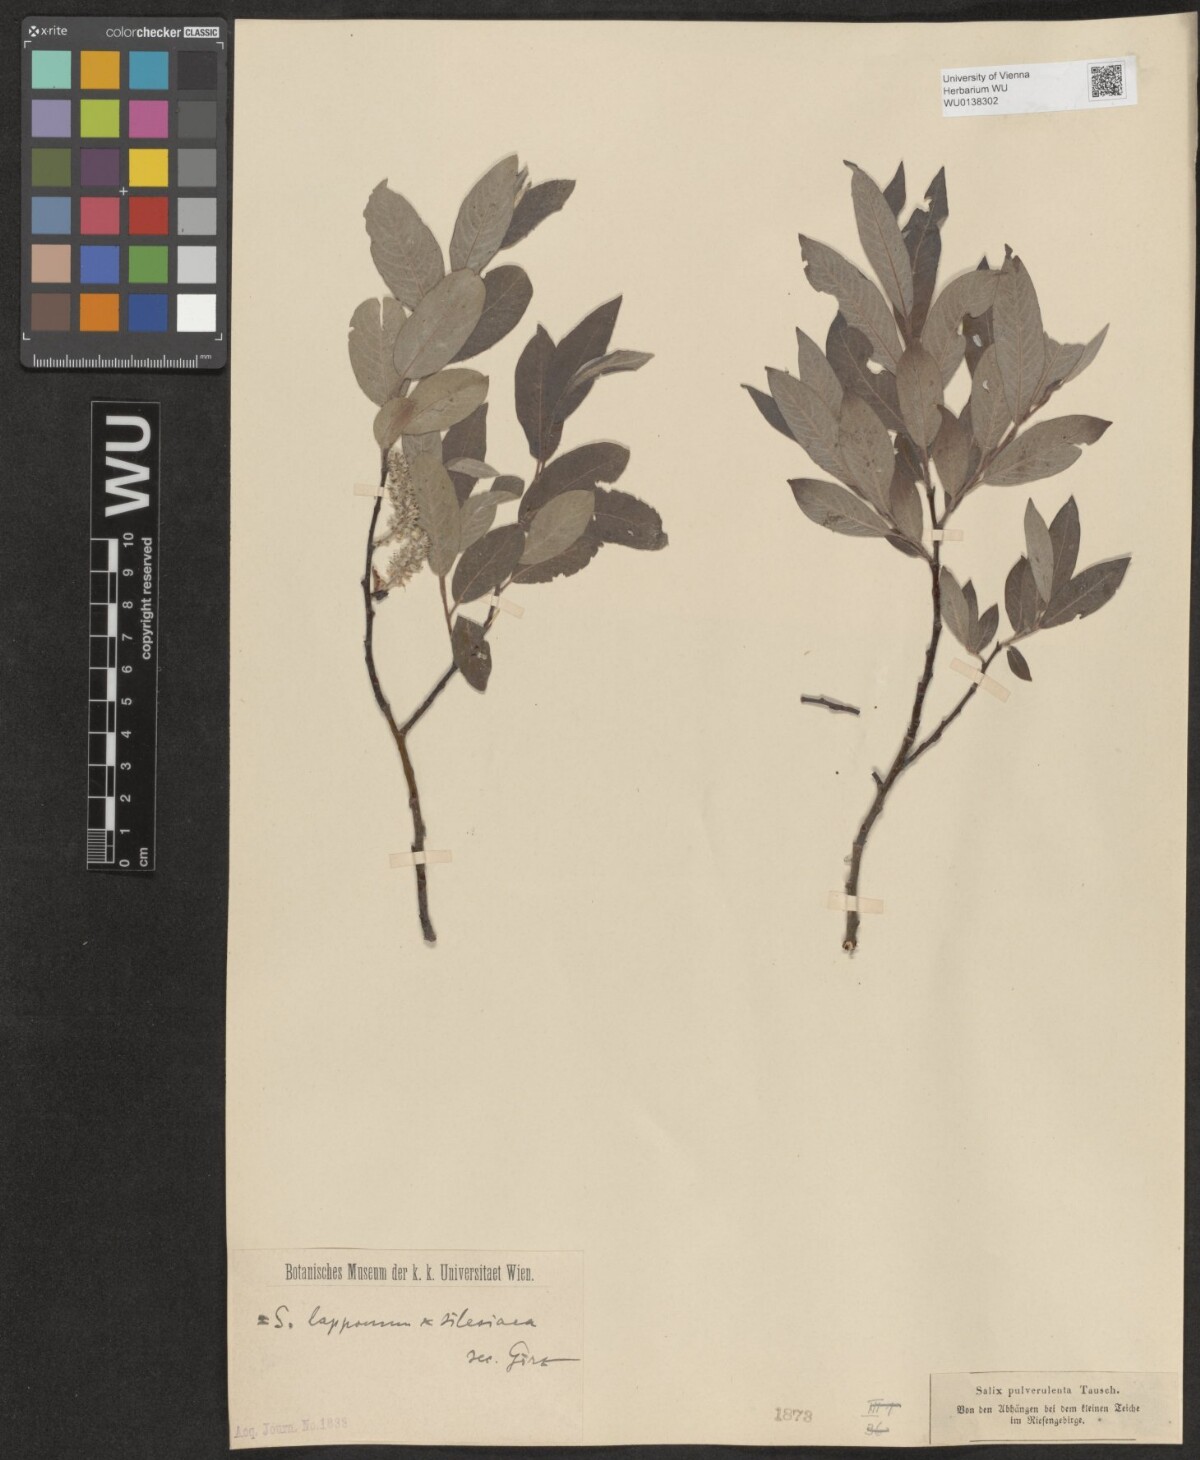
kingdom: Plantae
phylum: Tracheophyta
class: Magnoliopsida
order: Malpighiales
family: Salicaceae
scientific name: Salicaceae
